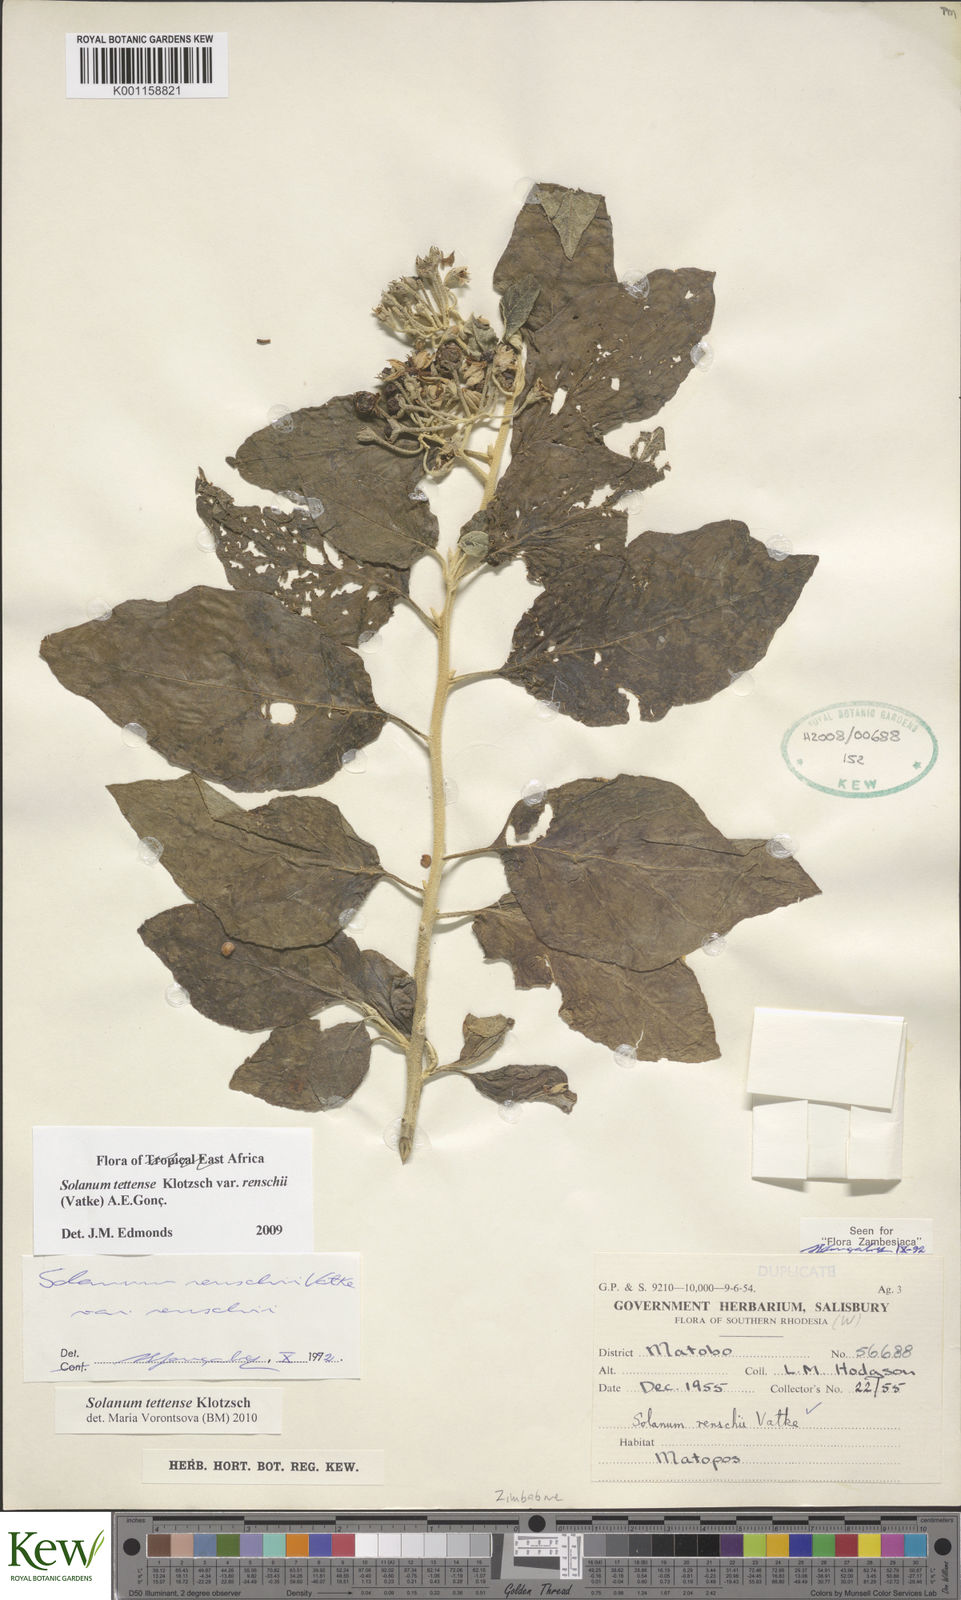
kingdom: Plantae
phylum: Tracheophyta
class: Magnoliopsida
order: Solanales
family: Solanaceae
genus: Solanum
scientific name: Solanum tettense
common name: Mozambique bitter apple
